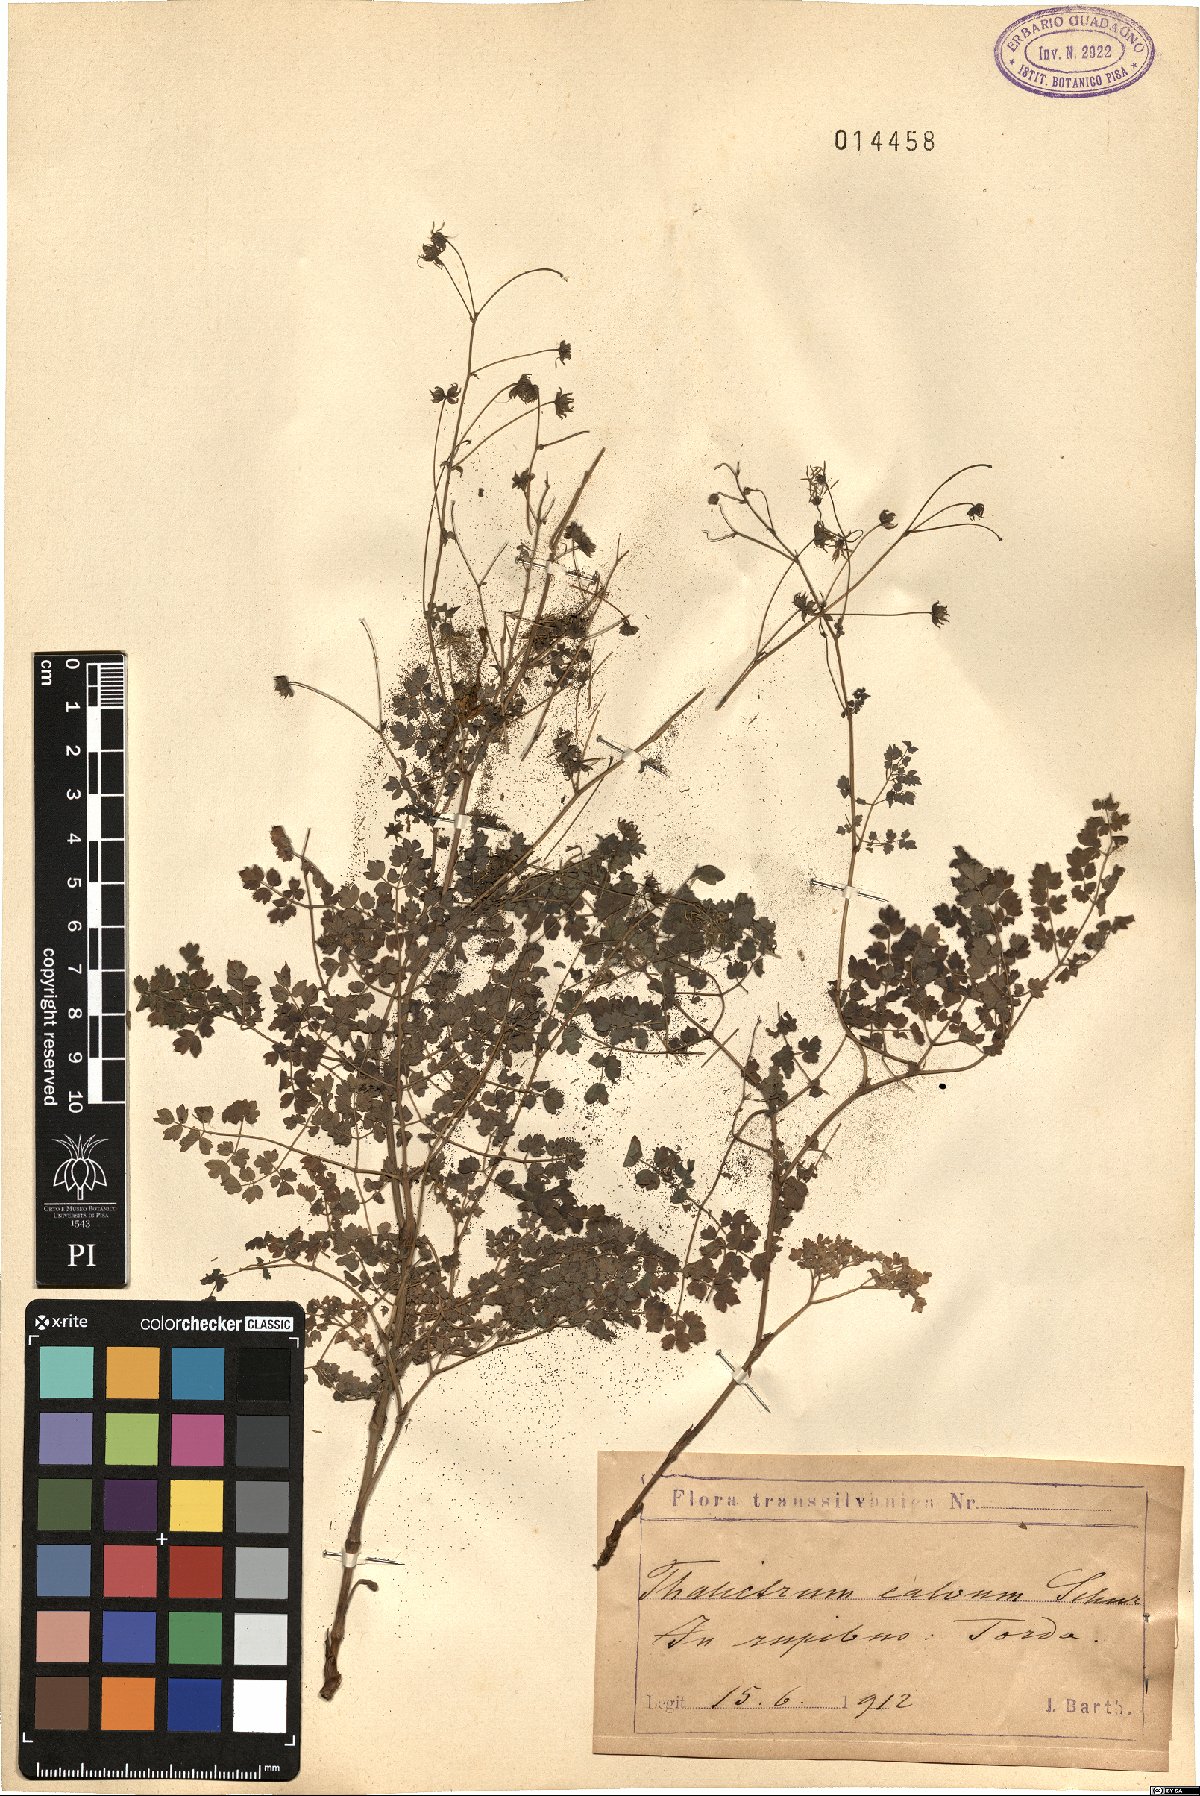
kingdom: Plantae
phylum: Tracheophyta
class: Magnoliopsida
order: Ranunculales
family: Ranunculaceae
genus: Thalictrum
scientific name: Thalictrum
